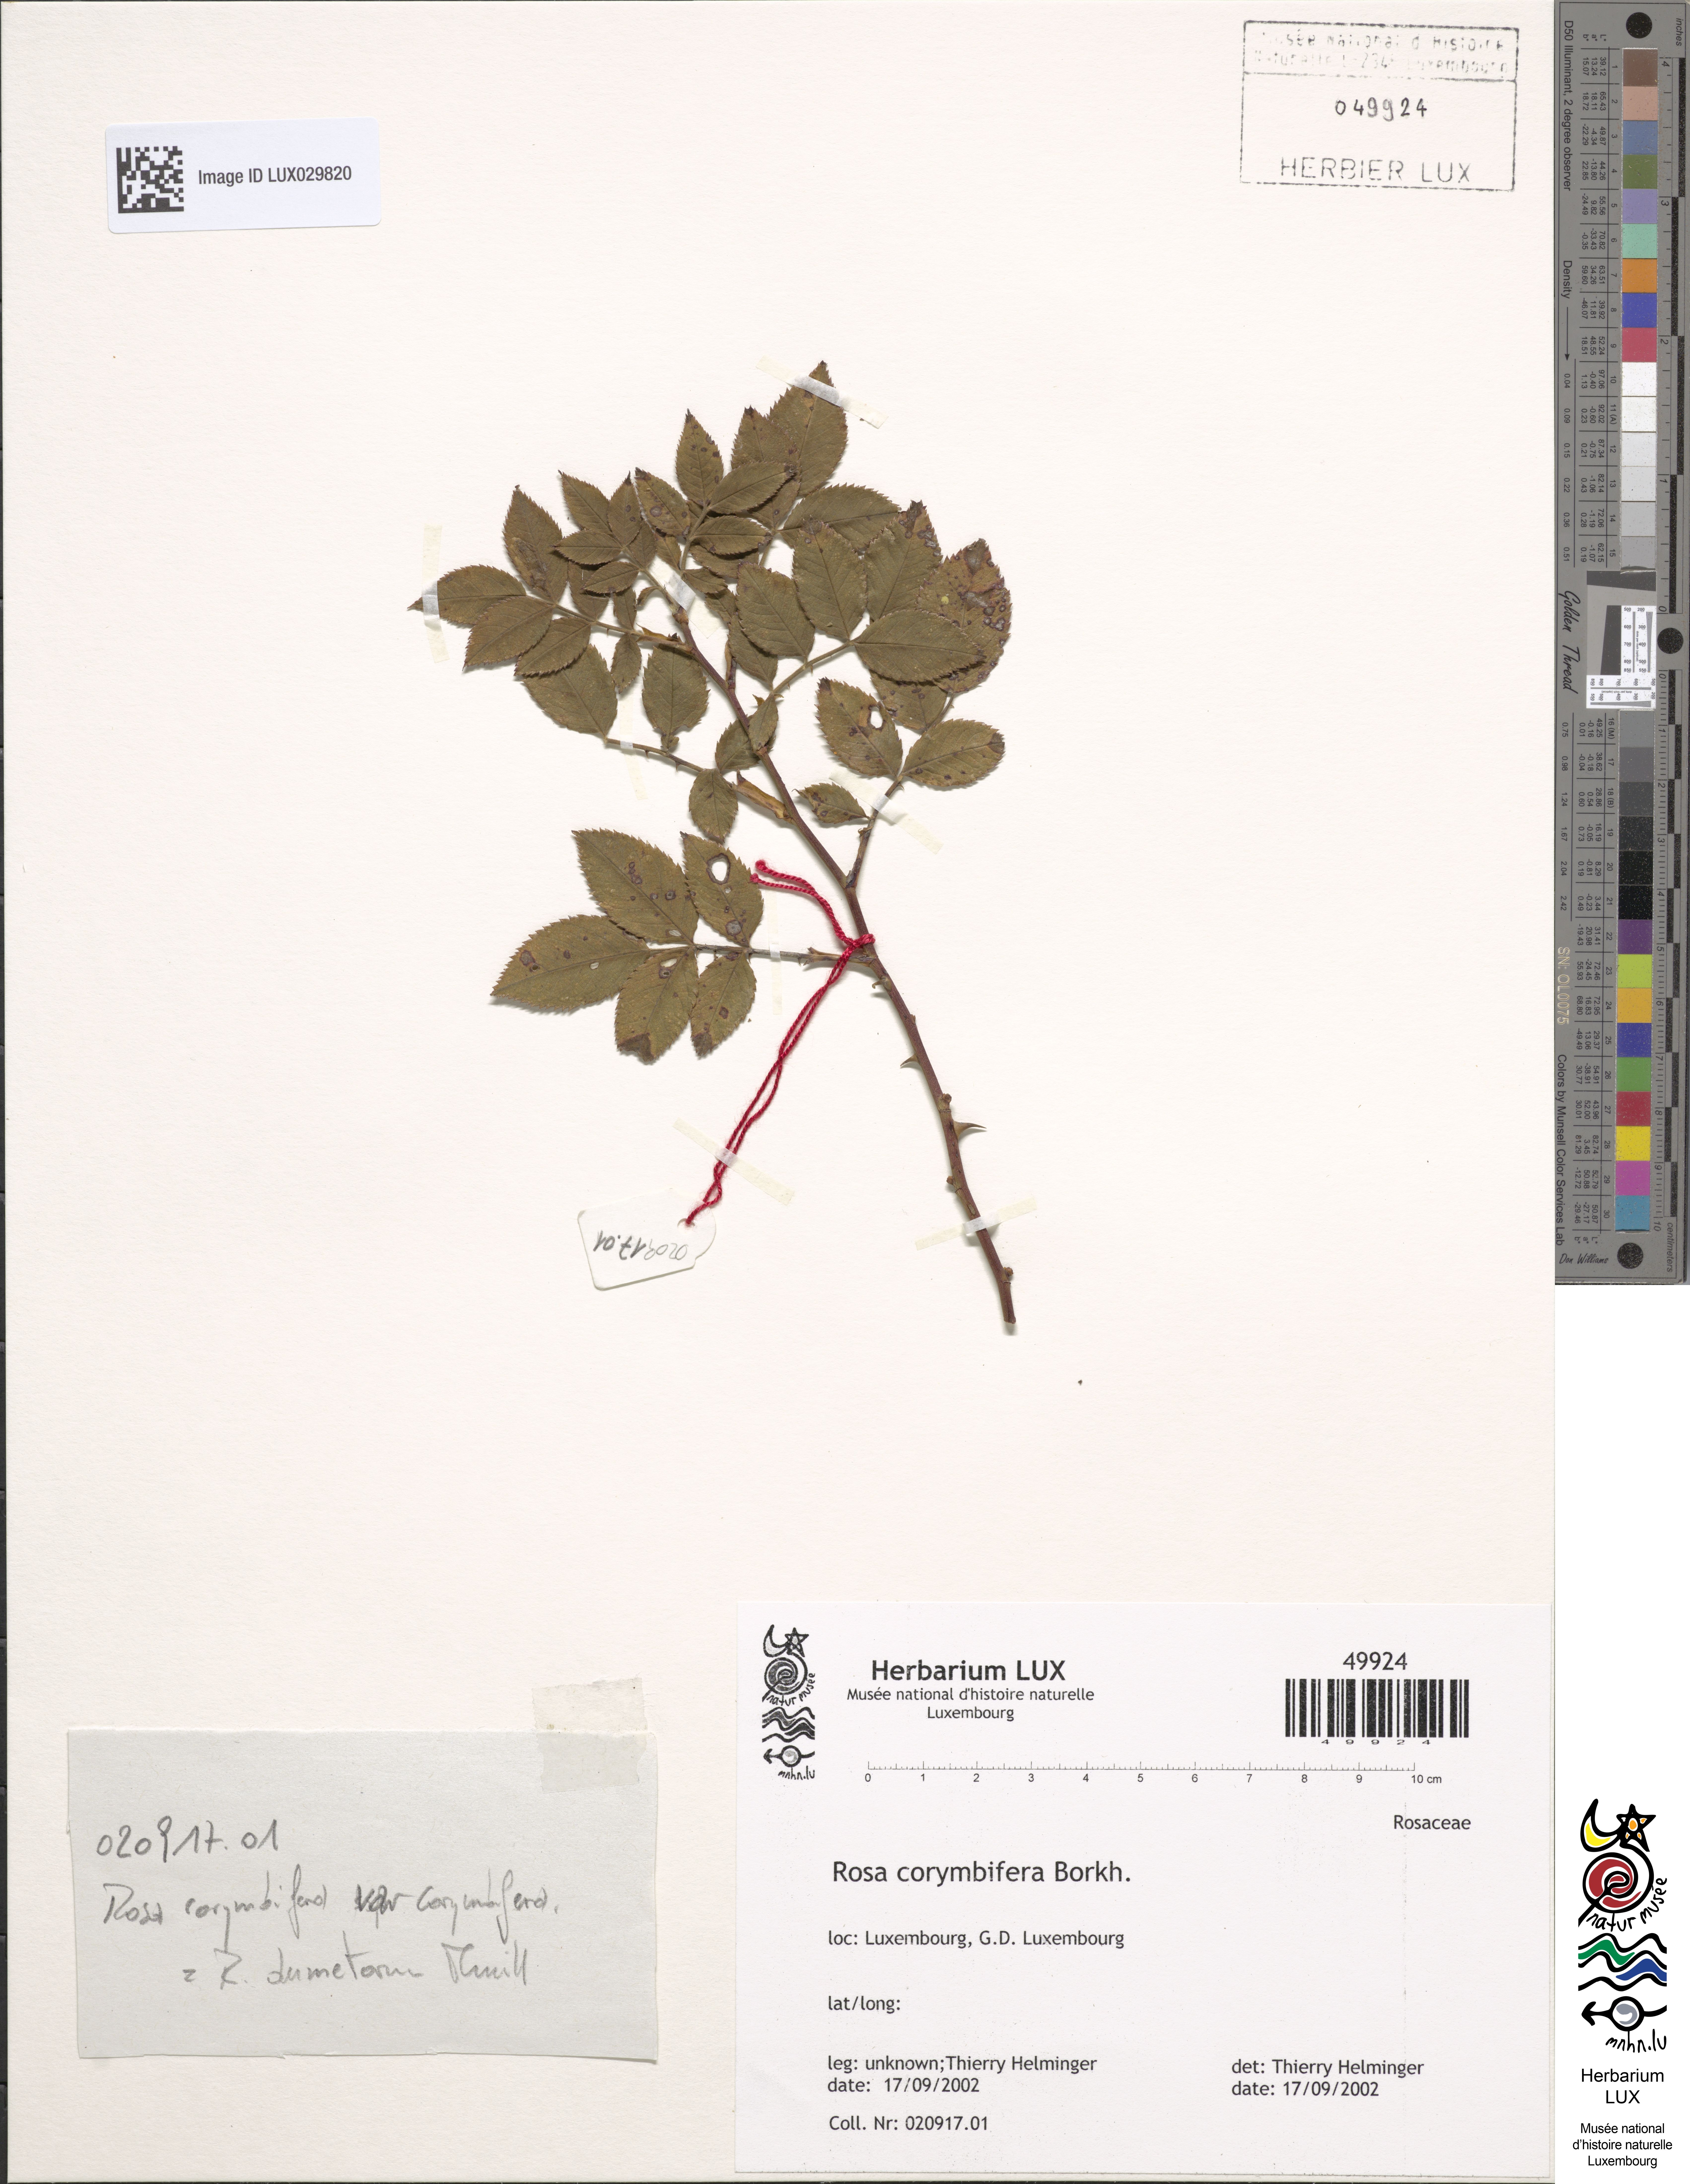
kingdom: Plantae
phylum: Tracheophyta
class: Magnoliopsida
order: Rosales
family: Rosaceae
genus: Rosa
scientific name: Rosa corymbifera
